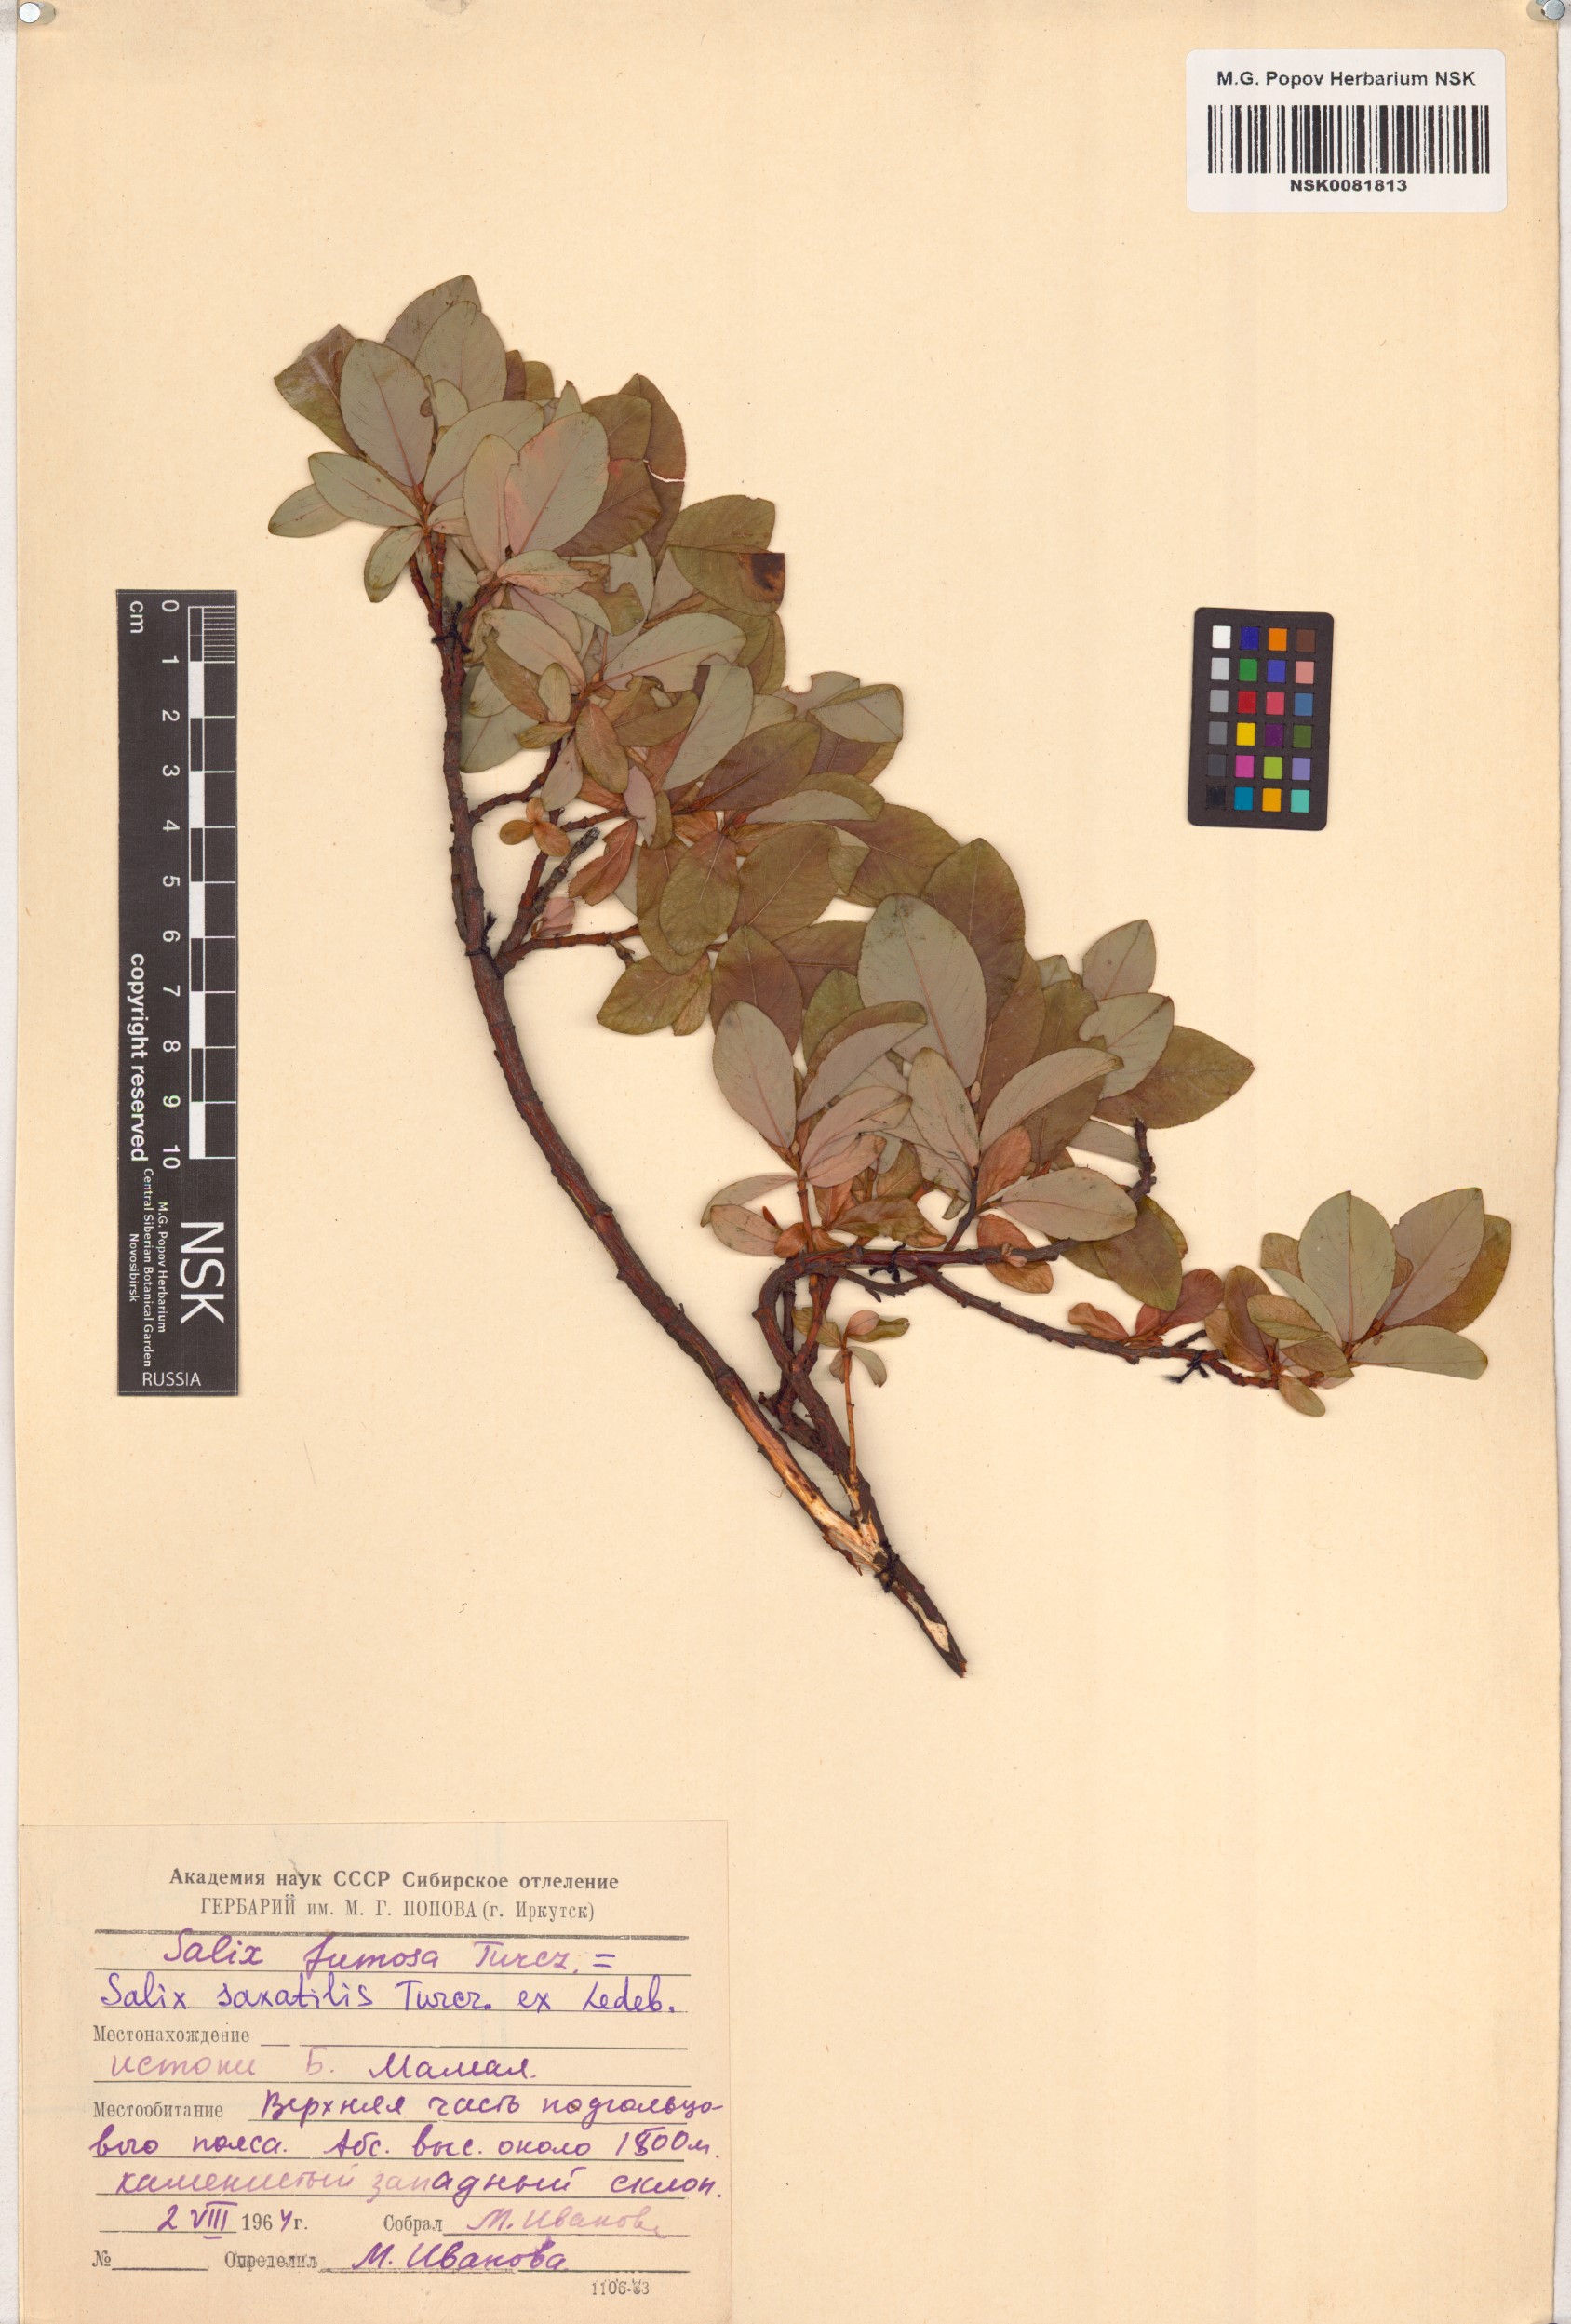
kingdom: Plantae
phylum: Tracheophyta
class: Magnoliopsida
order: Malpighiales
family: Salicaceae
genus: Salix
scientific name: Salix saxatilis
